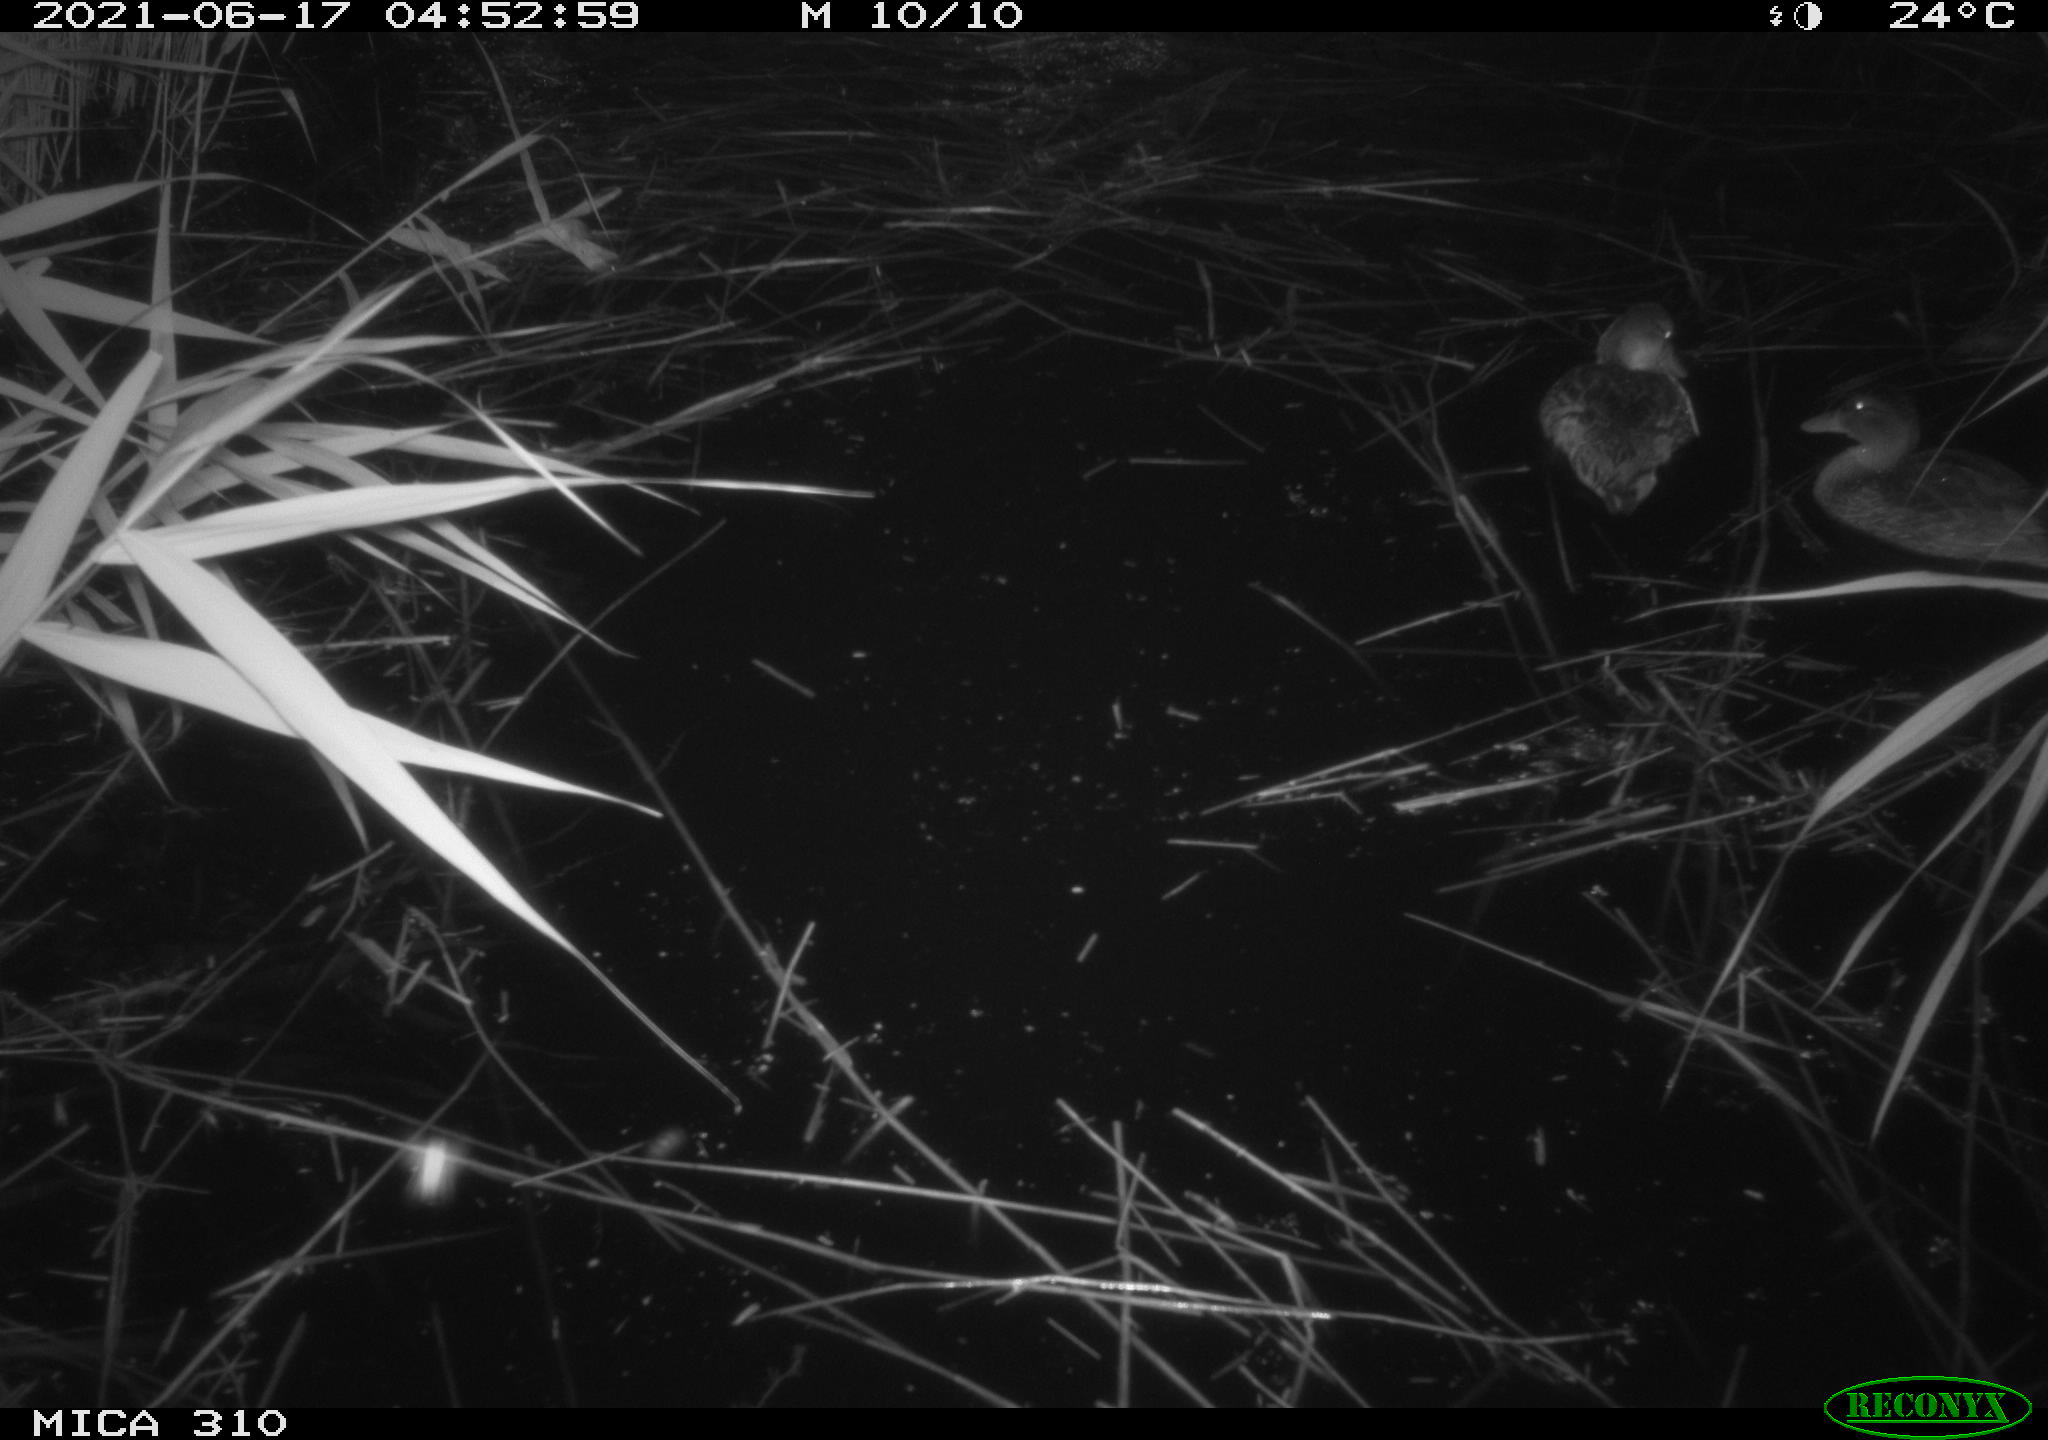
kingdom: Animalia
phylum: Chordata
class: Aves
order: Anseriformes
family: Anatidae
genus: Anas
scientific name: Anas
